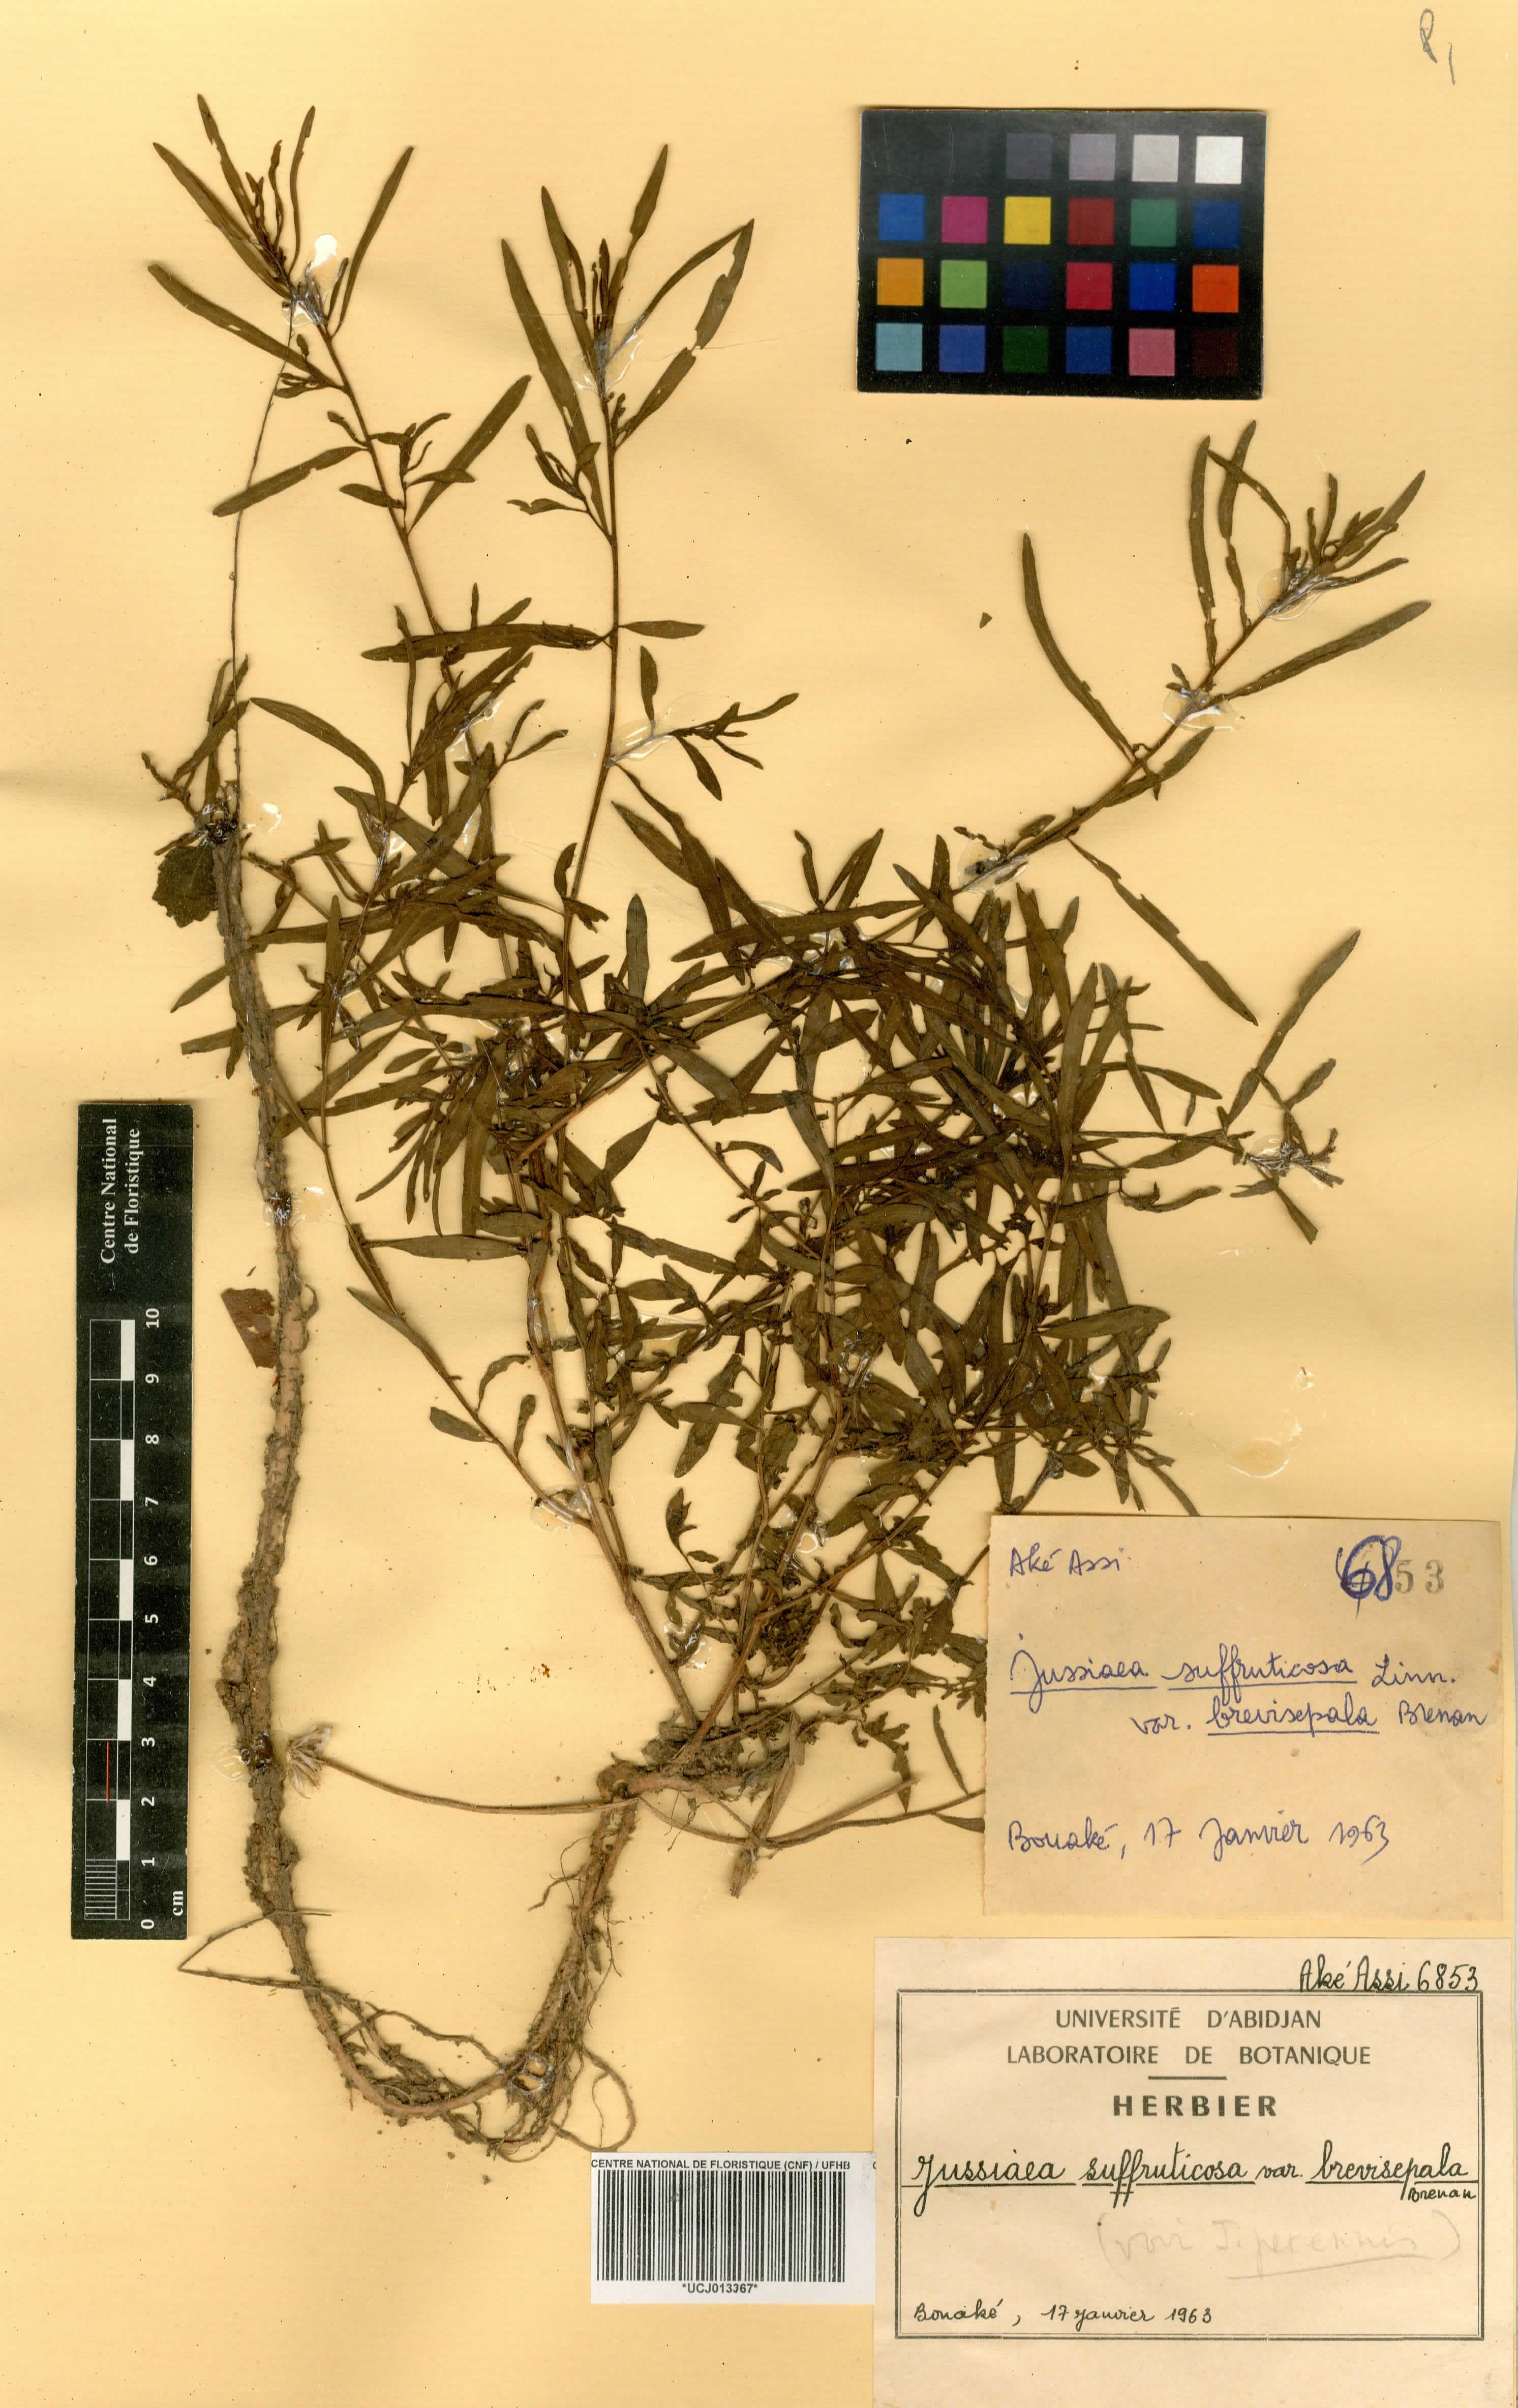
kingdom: Plantae
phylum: Tracheophyta
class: Magnoliopsida
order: Myrtales
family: Onagraceae
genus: Ludwigia
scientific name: Ludwigia octovalvis
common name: Water-primrose
